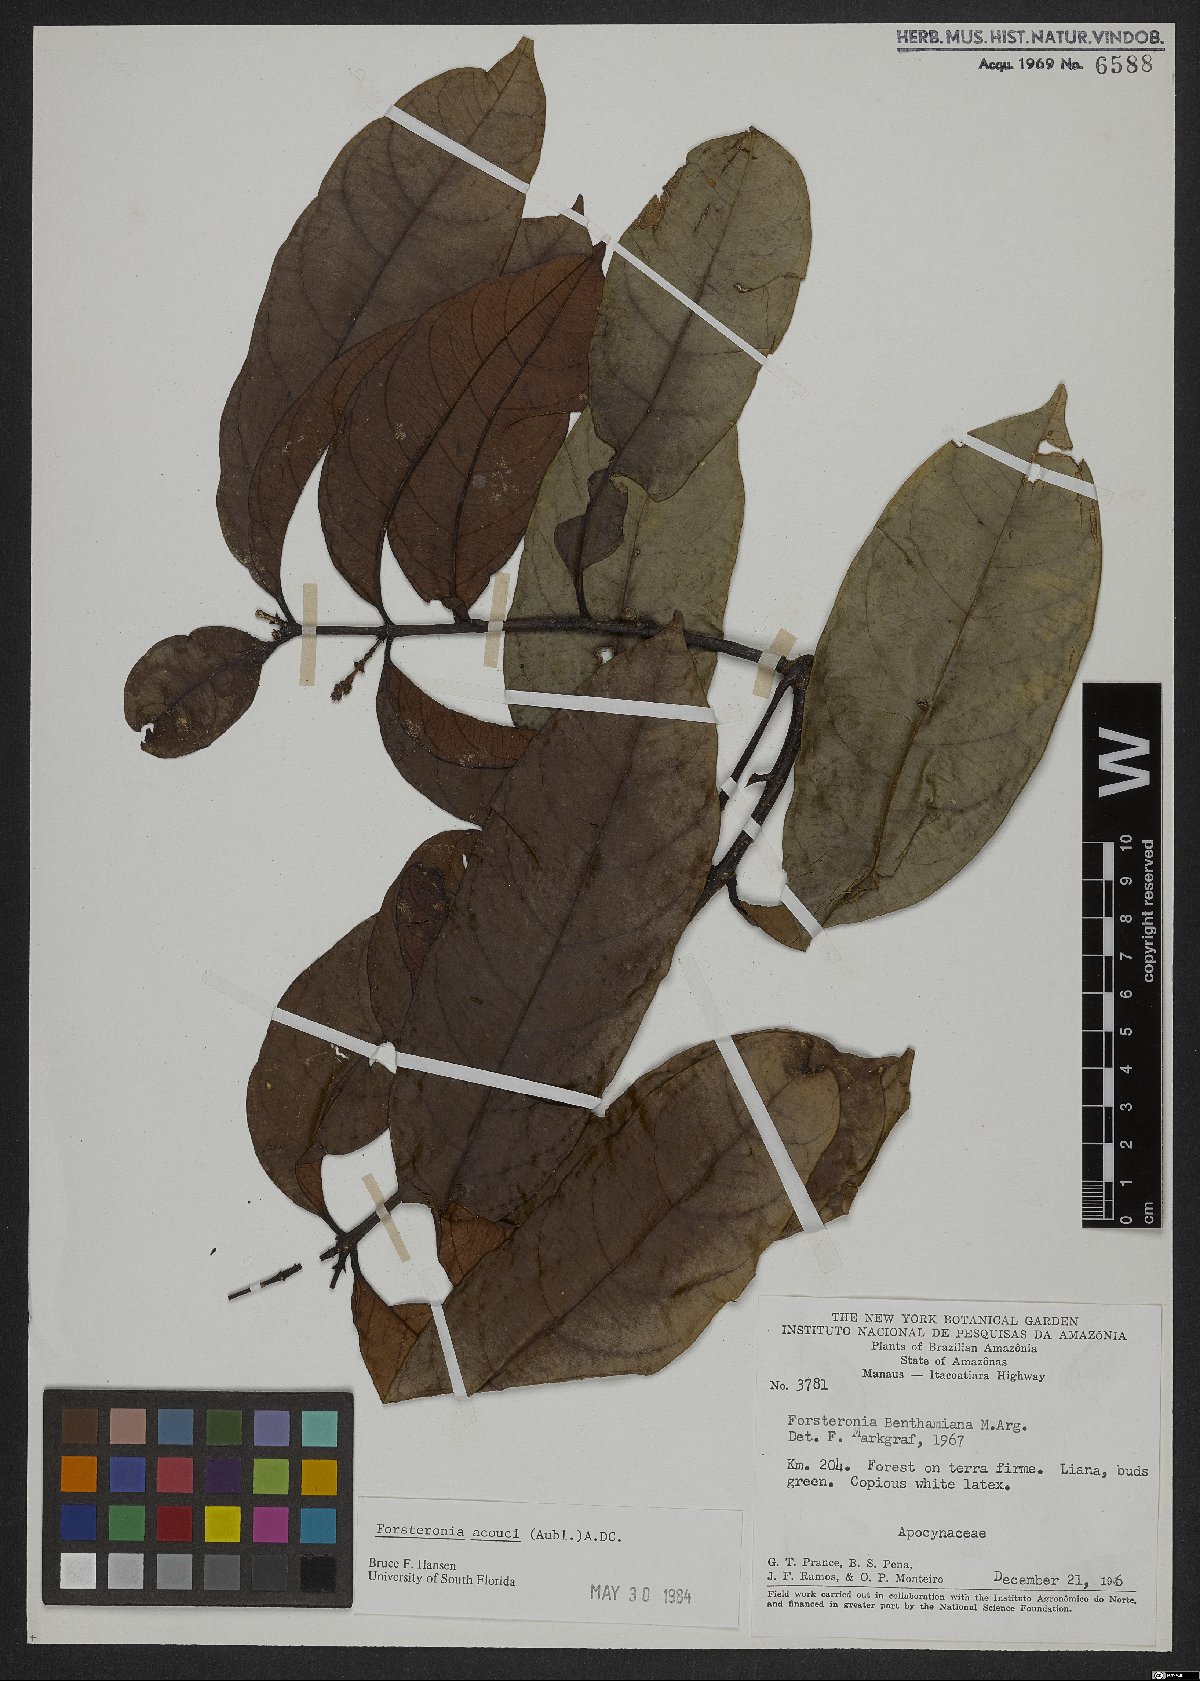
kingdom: Plantae
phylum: Tracheophyta
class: Magnoliopsida
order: Gentianales
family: Apocynaceae
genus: Forsteronia
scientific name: Forsteronia acouci
